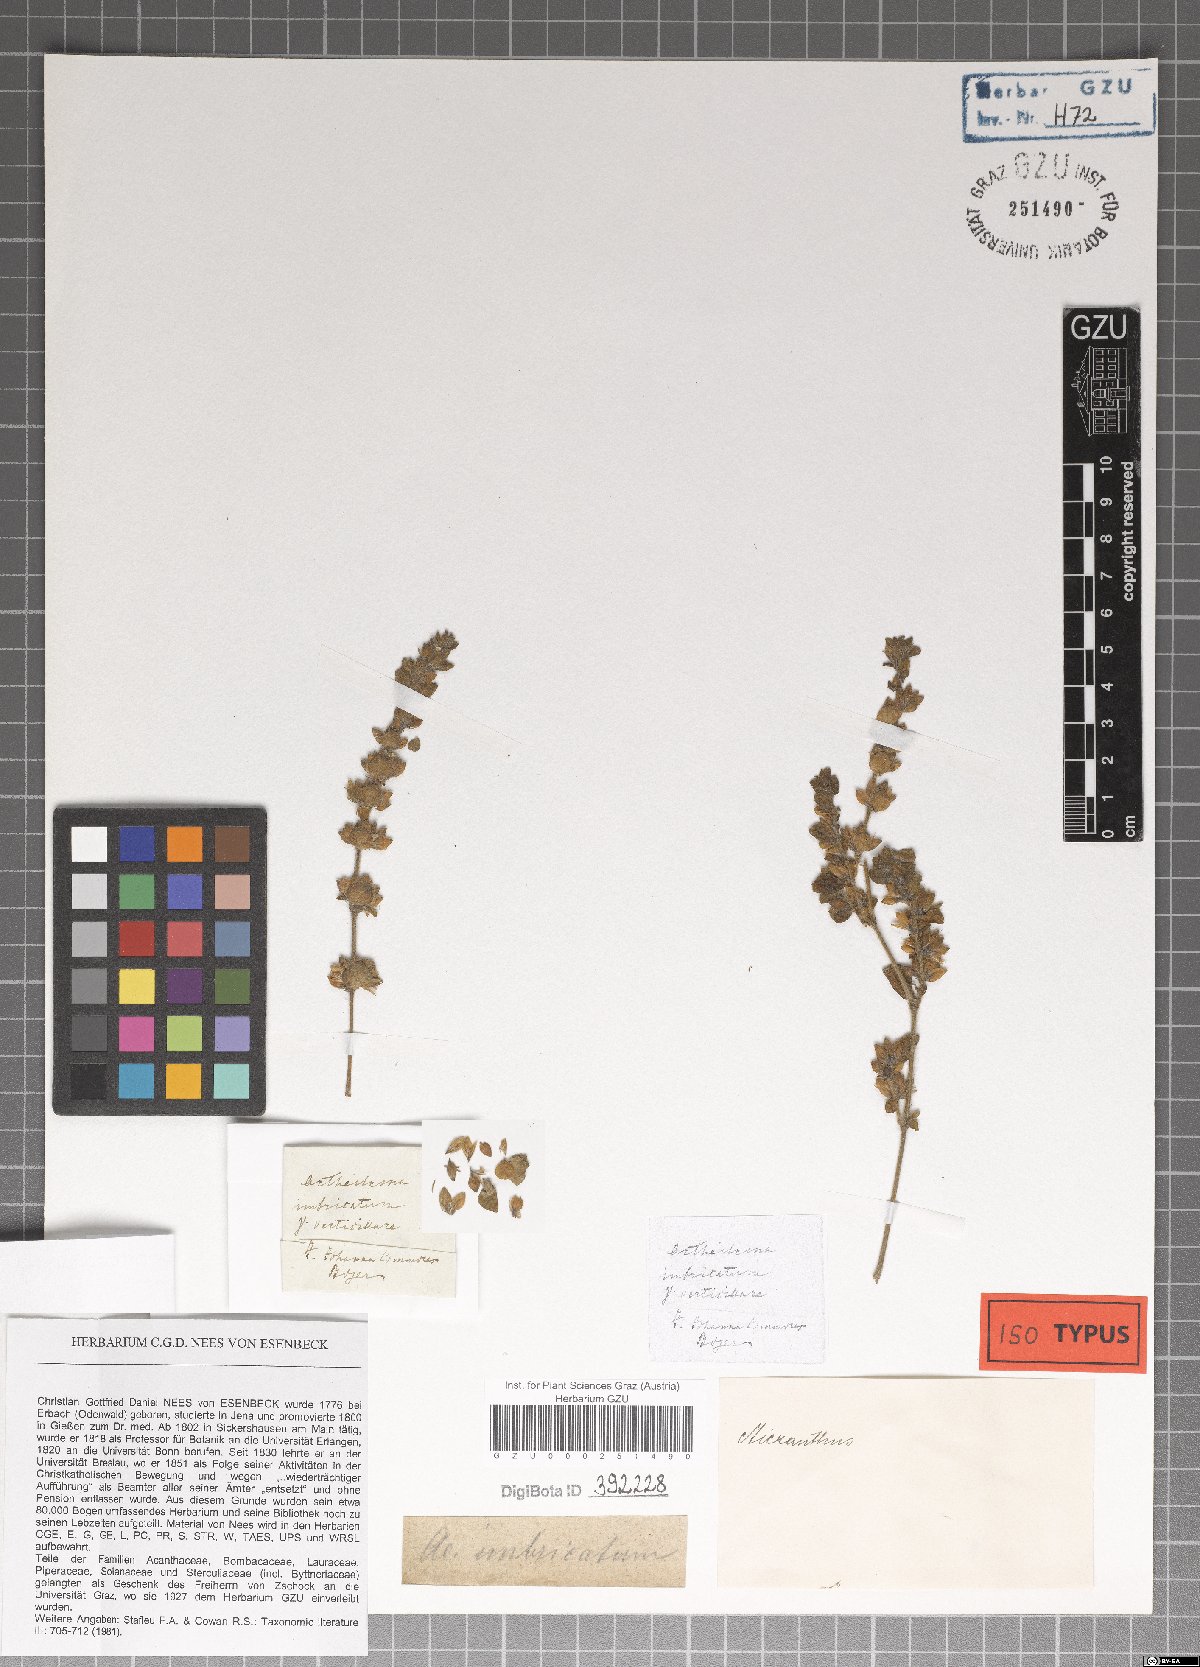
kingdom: Plantae
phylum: Tracheophyta
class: Magnoliopsida
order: Lamiales
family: Acanthaceae
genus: Phaulopsis
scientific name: Phaulopsis verticillaris
